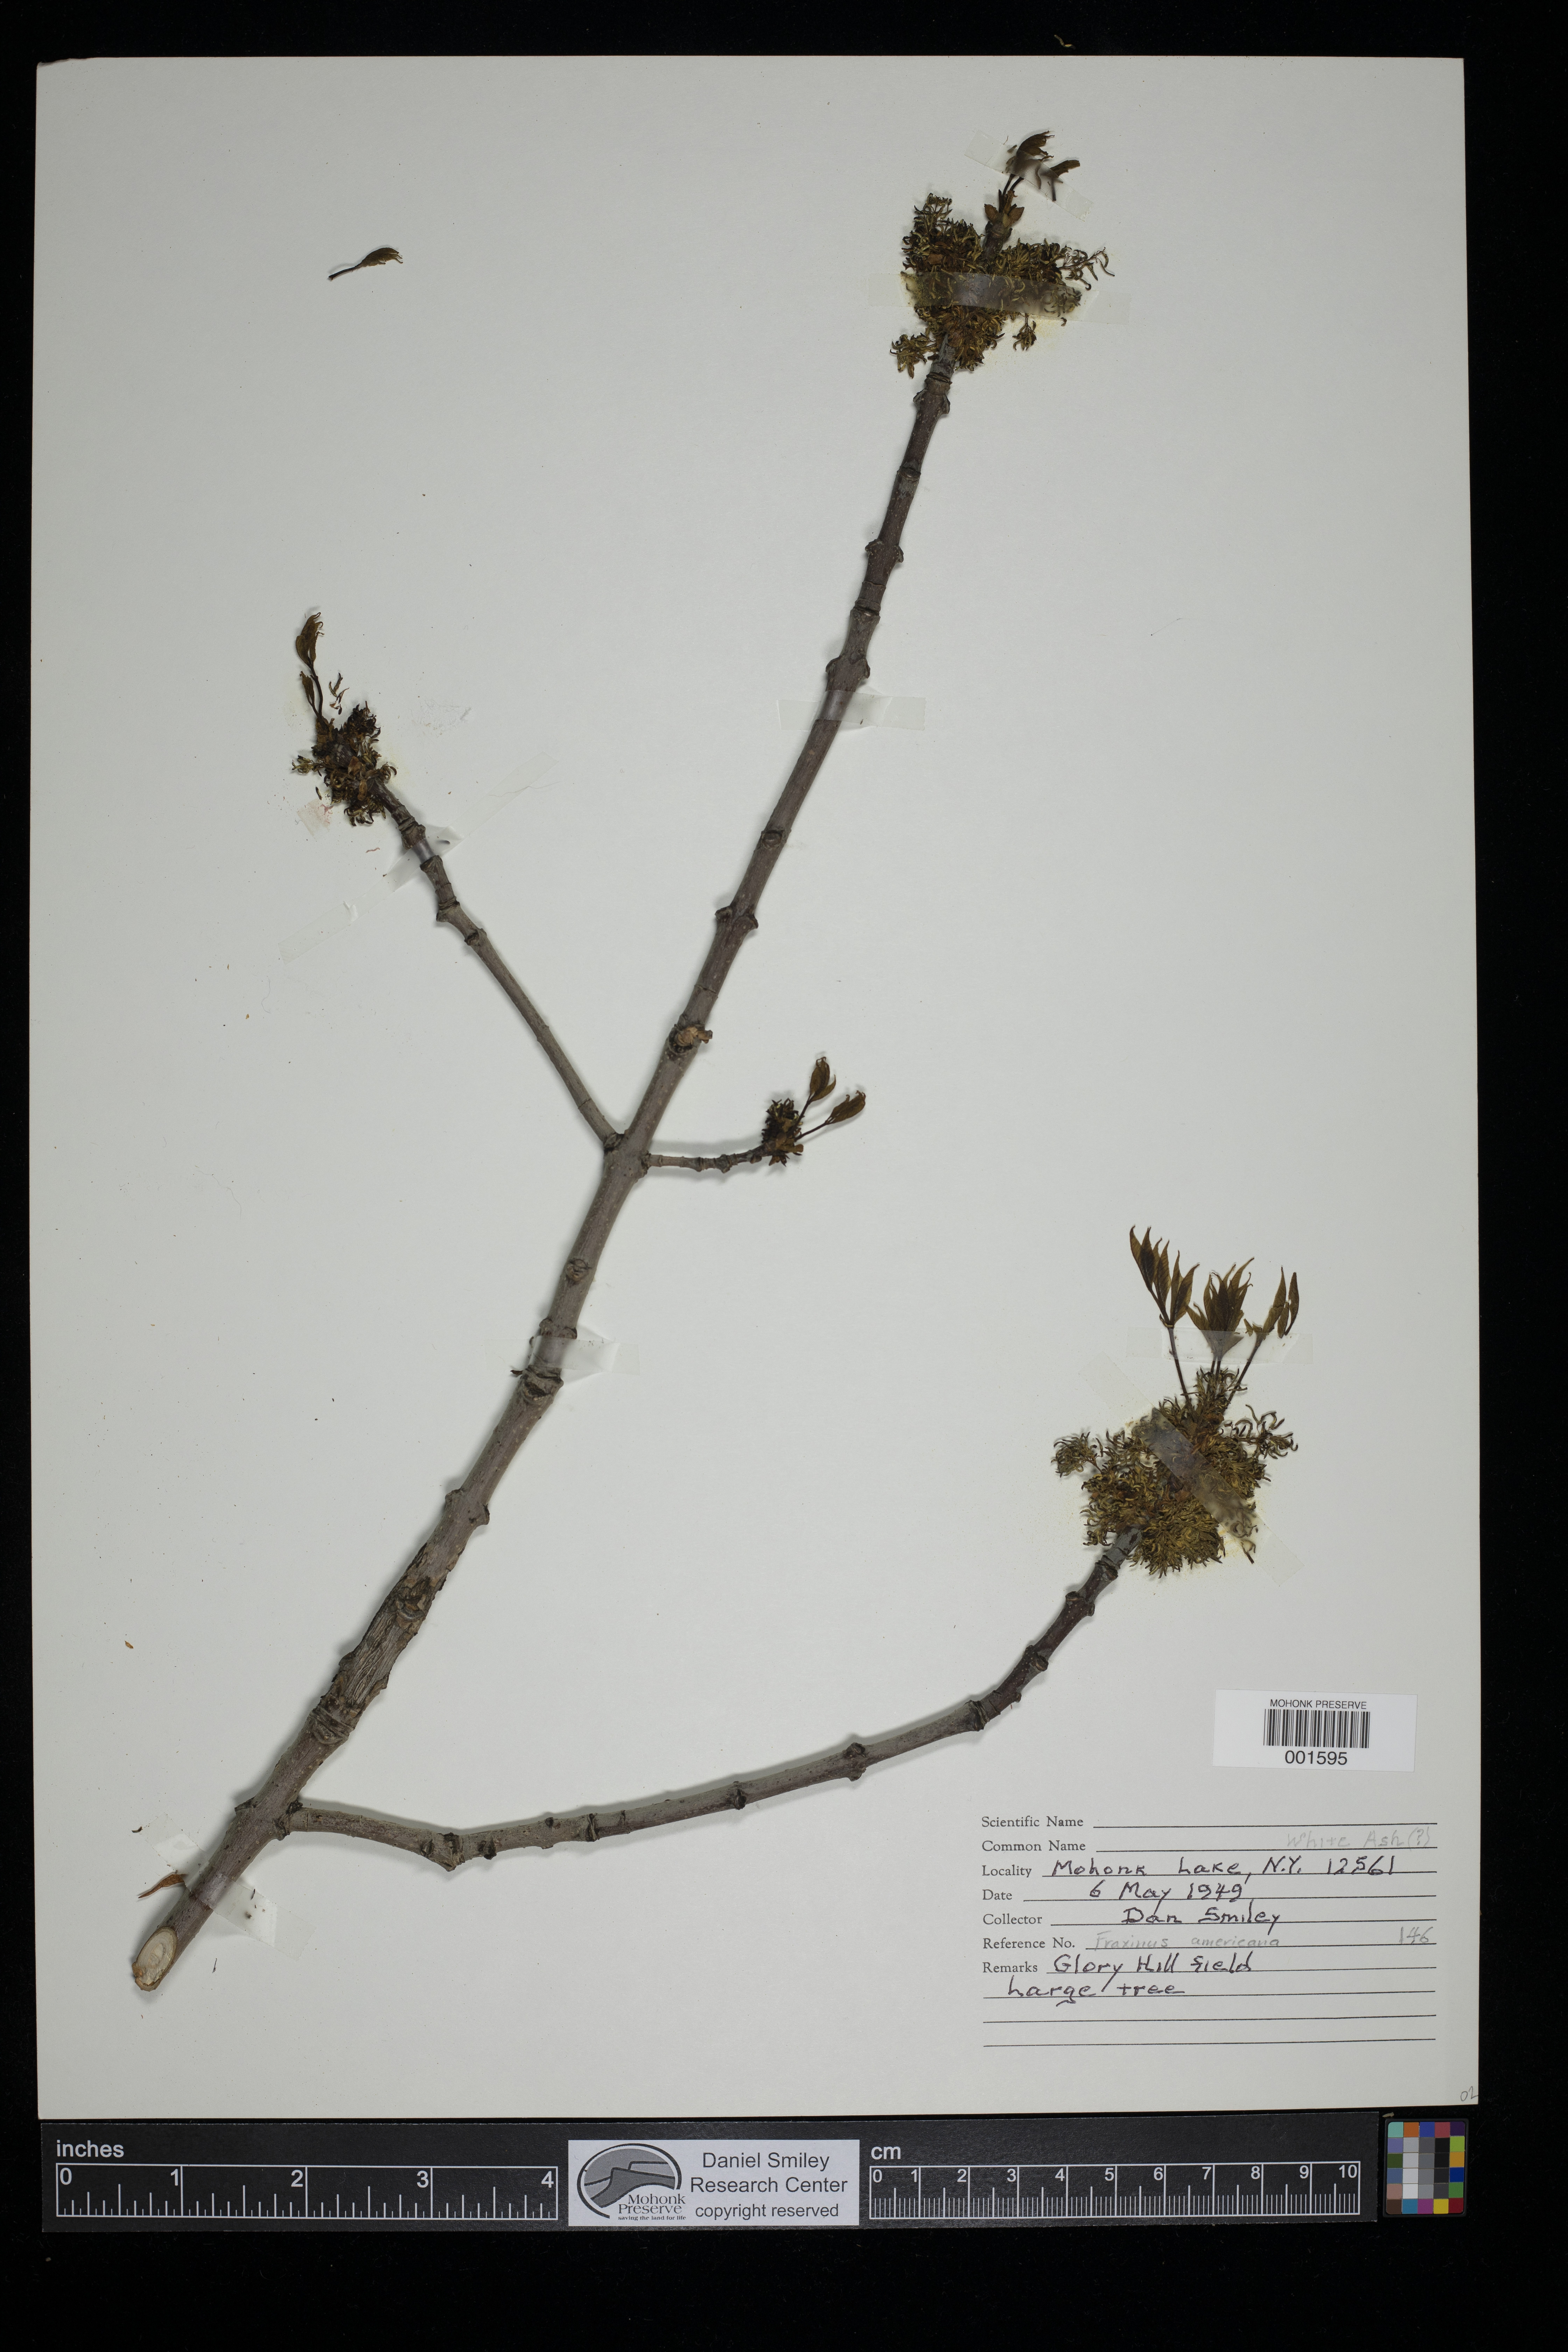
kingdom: Plantae
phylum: Tracheophyta
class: Magnoliopsida
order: Lamiales
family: Oleaceae
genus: Fraxinus
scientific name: Fraxinus americana
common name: White ash
